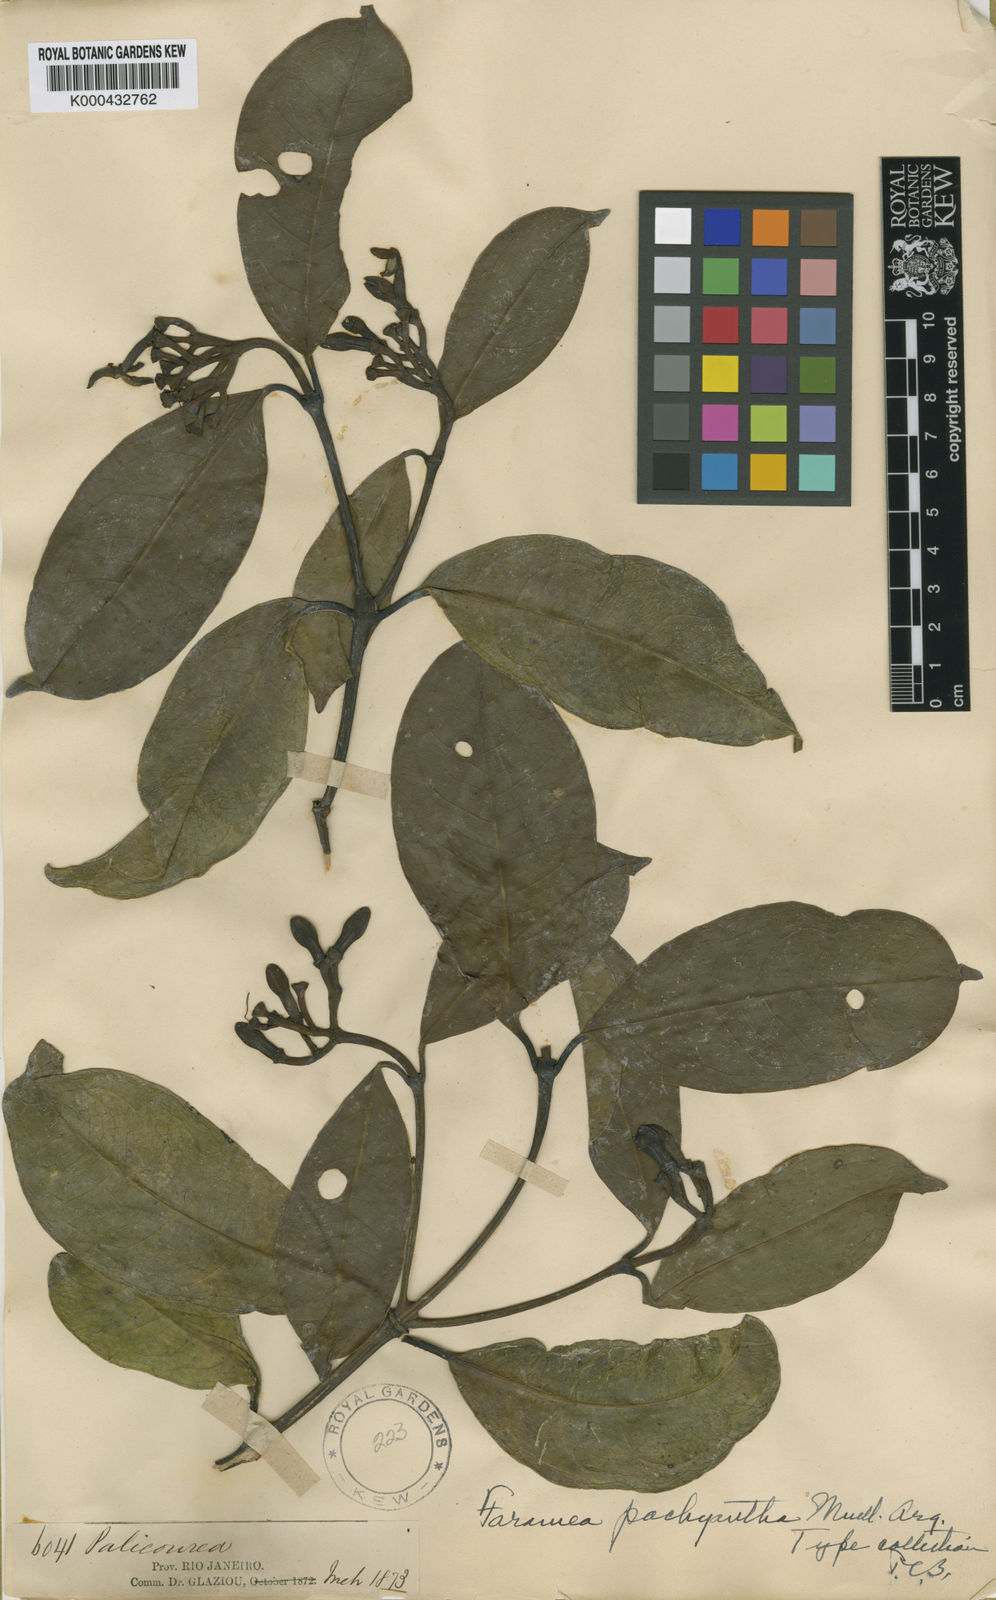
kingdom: Plantae
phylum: Tracheophyta
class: Magnoliopsida
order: Gentianales
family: Rubiaceae
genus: Faramea
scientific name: Faramea
